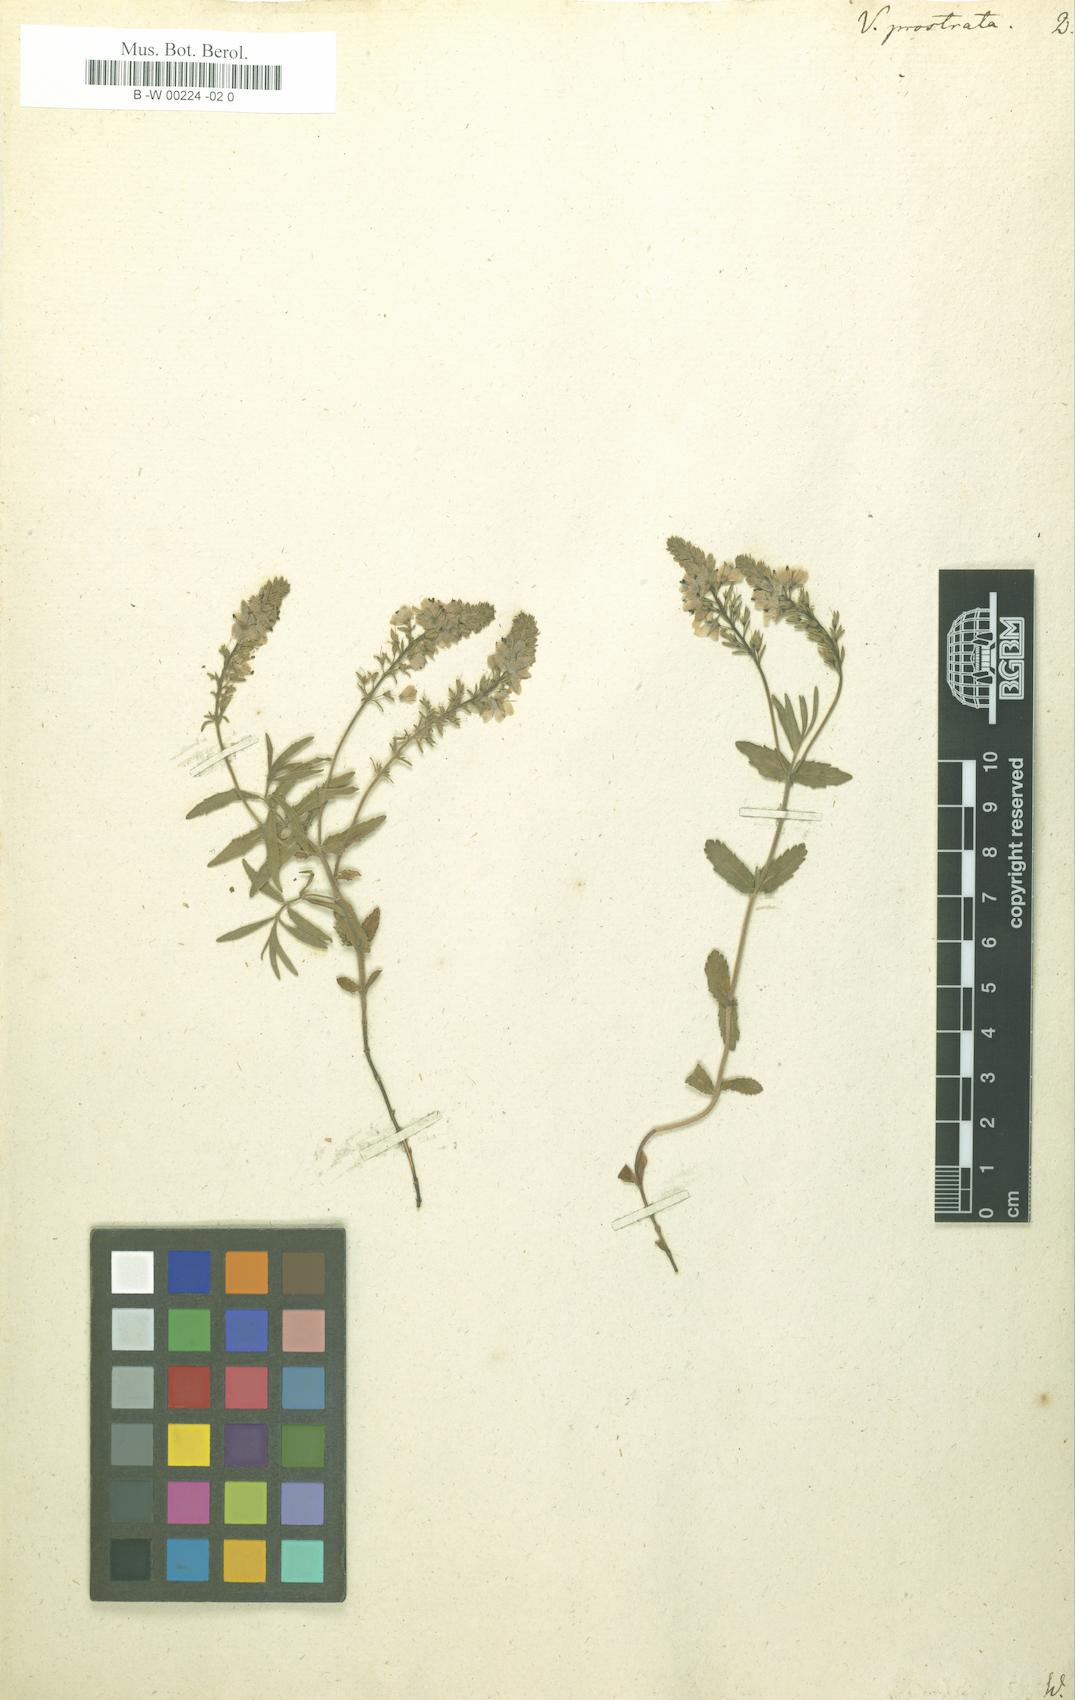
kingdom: Plantae
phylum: Tracheophyta
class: Magnoliopsida
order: Lamiales
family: Plantaginaceae
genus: Veronica
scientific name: Veronica prostrata
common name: Prostrate speedwell
